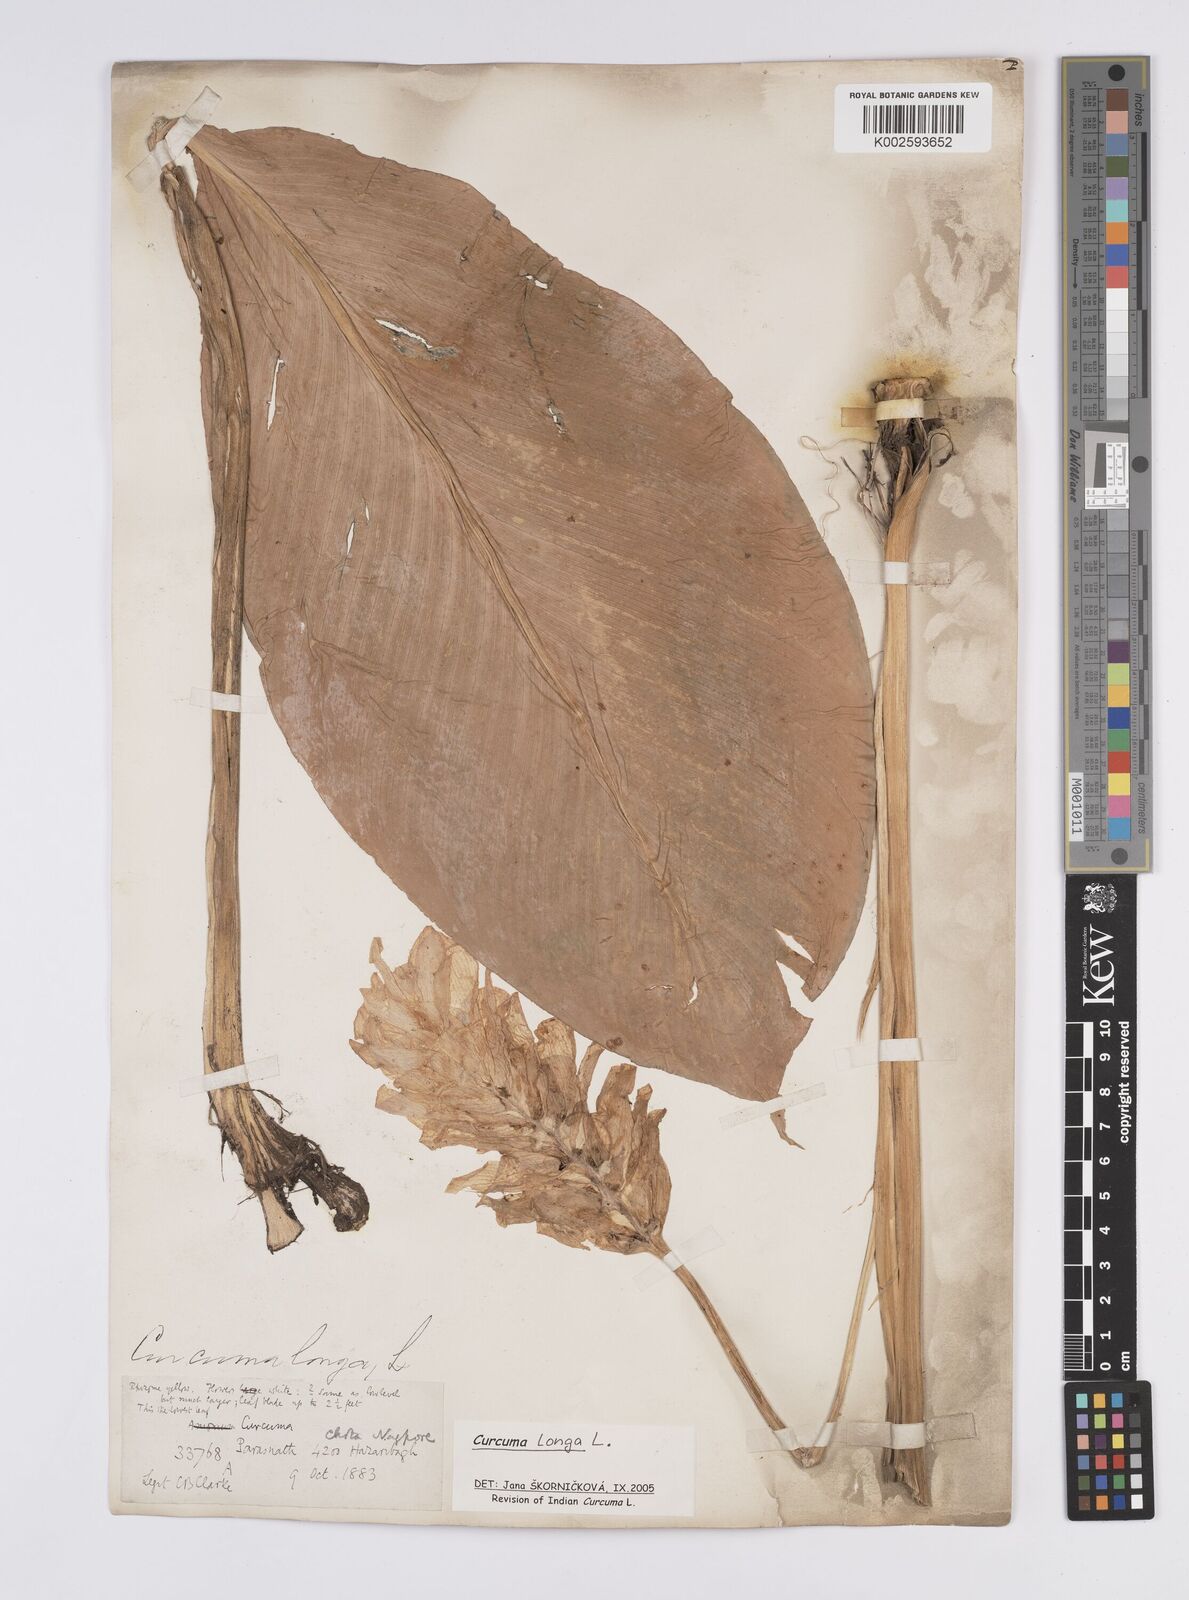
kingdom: Plantae
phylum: Tracheophyta
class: Liliopsida
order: Zingiberales
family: Zingiberaceae
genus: Curcuma
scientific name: Curcuma longa
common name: Turmeric
